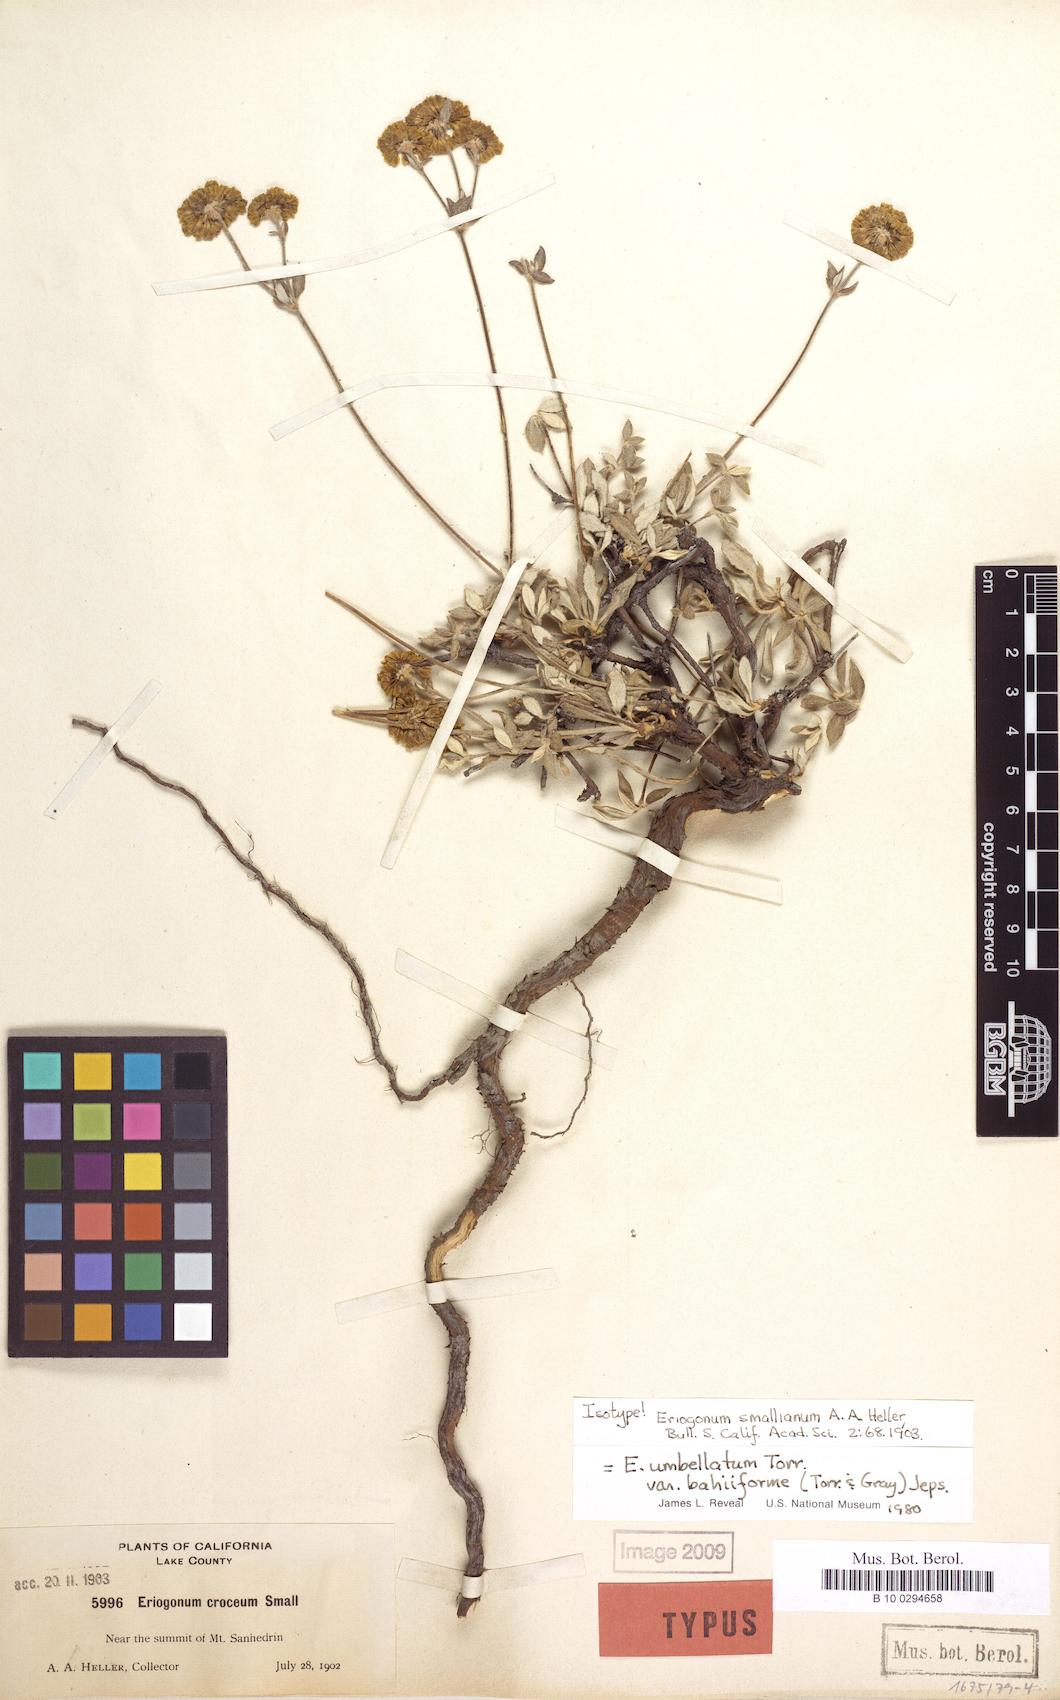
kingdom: Plantae
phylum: Tracheophyta
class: Magnoliopsida
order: Caryophyllales
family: Polygonaceae
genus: Eriogonum
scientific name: Eriogonum umbellatum
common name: Sulfur-buckwheat
